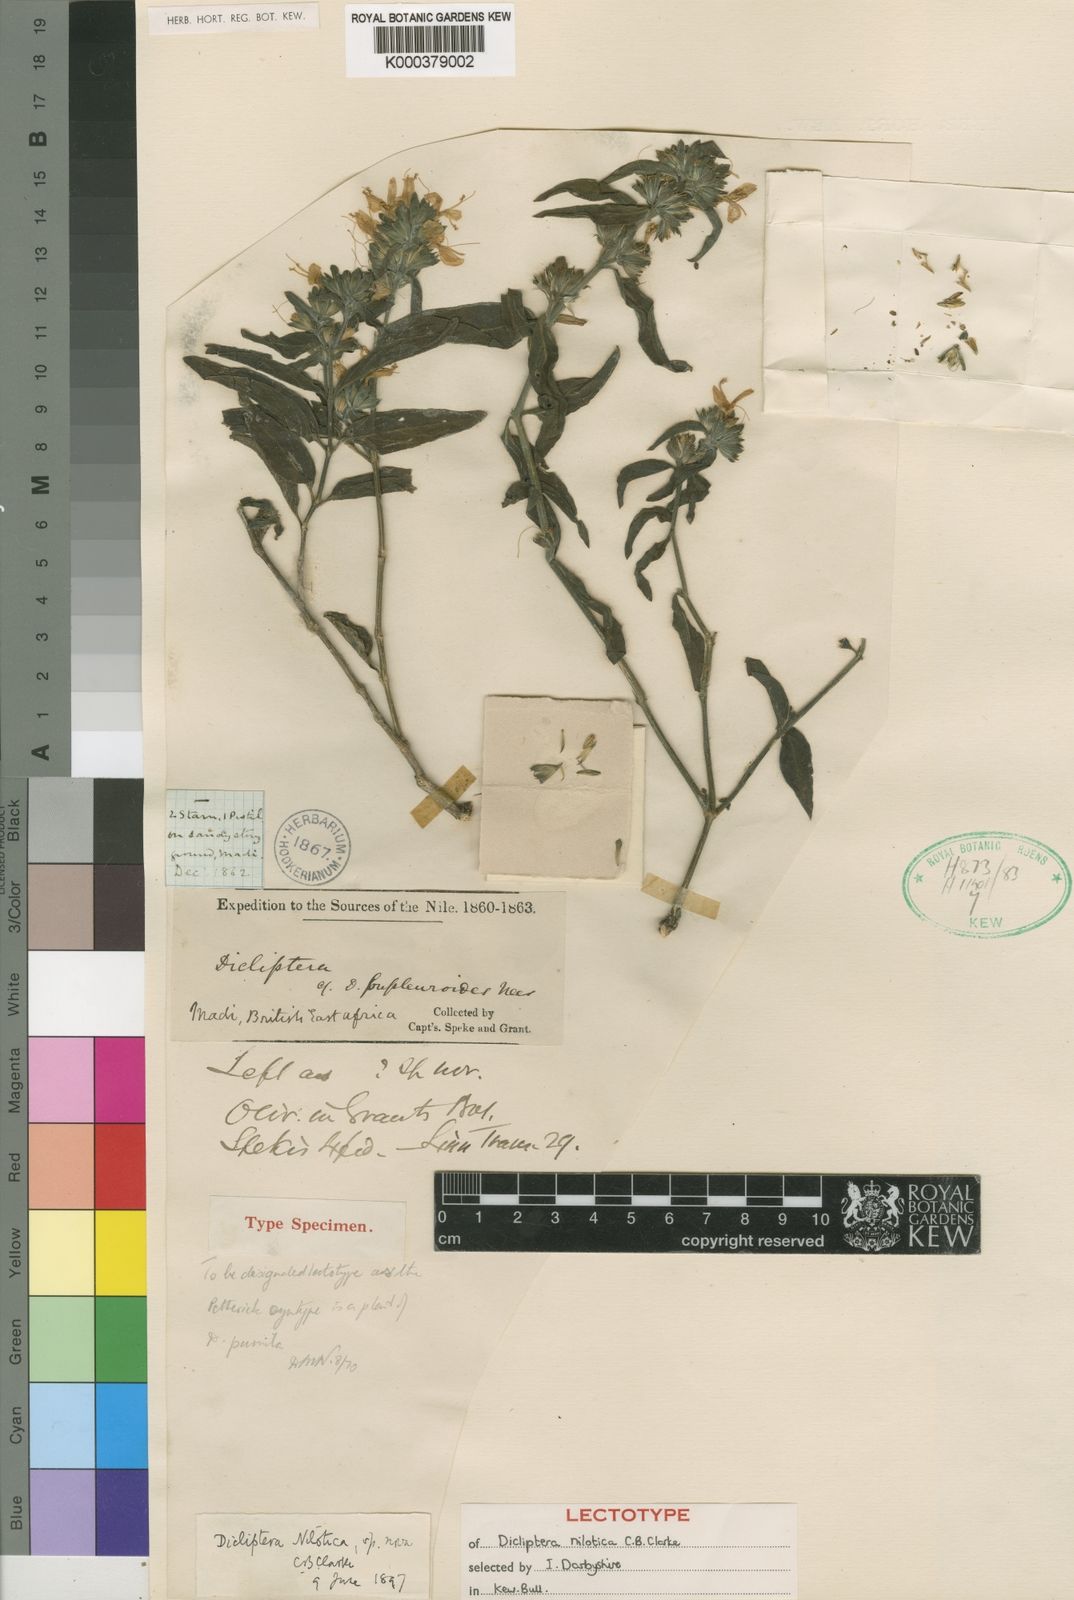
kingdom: Plantae
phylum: Tracheophyta
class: Magnoliopsida
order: Lamiales
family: Acanthaceae
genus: Dicliptera
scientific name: Dicliptera nilotica
